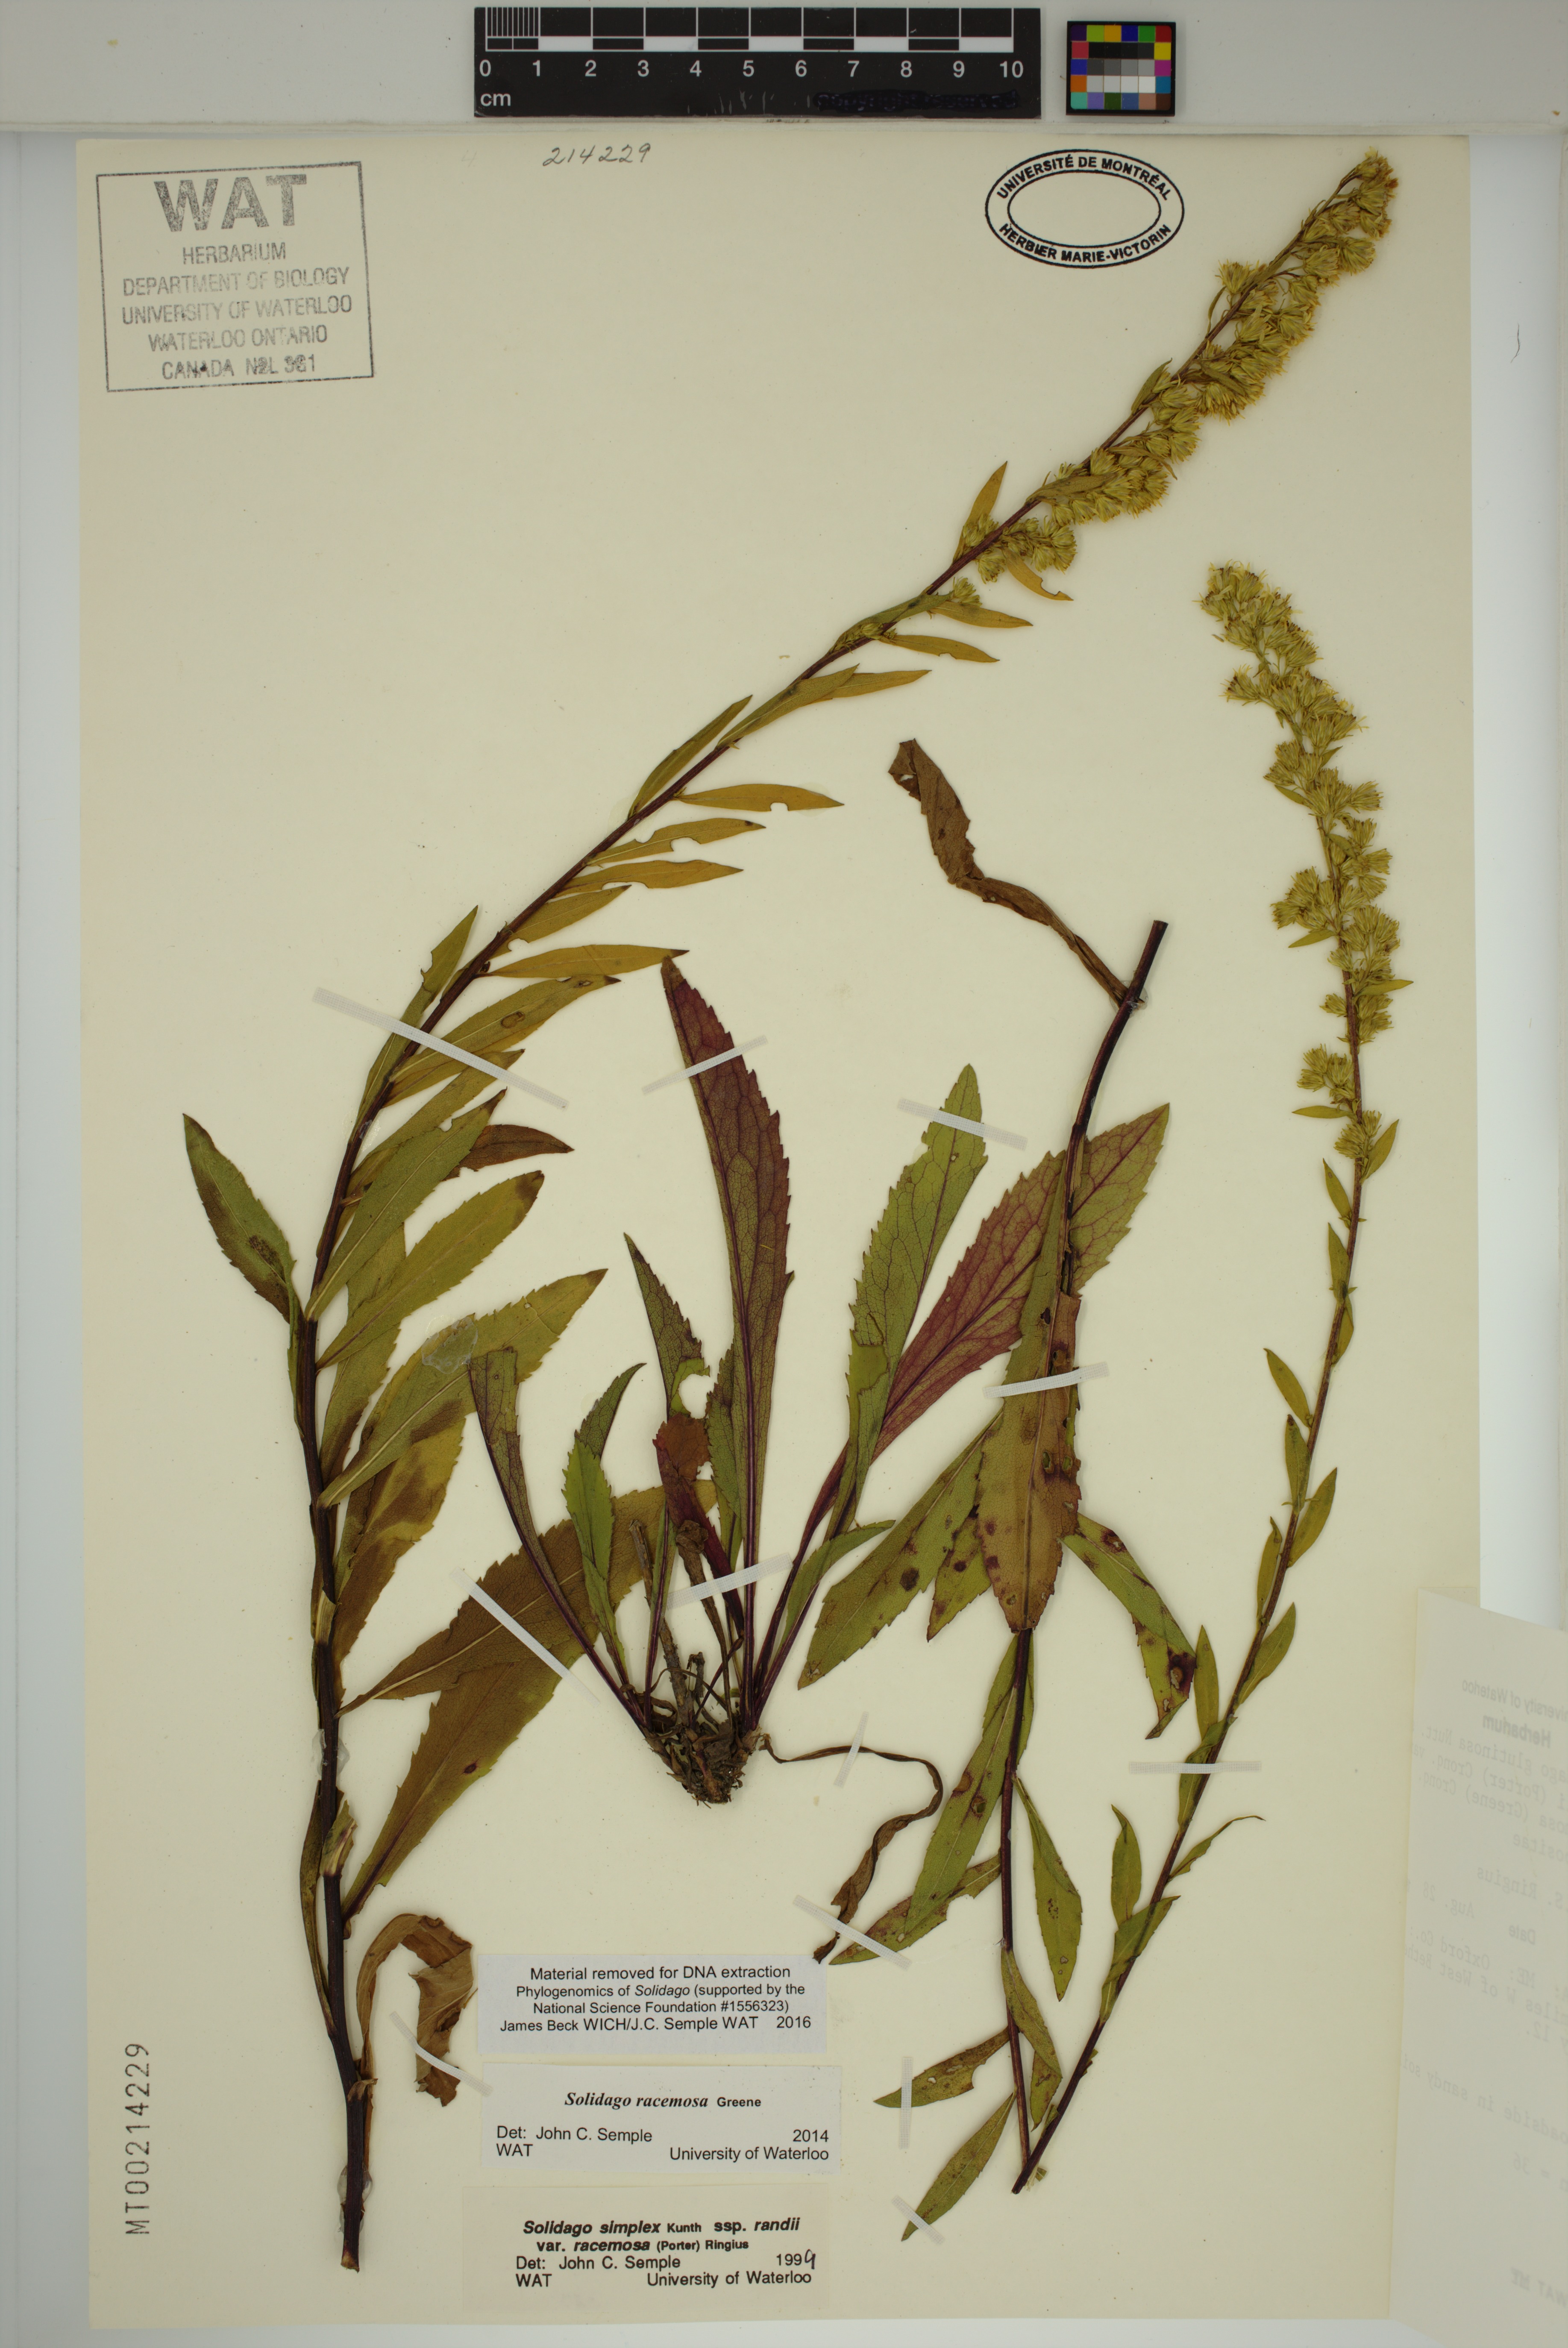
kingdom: Plantae
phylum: Tracheophyta
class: Magnoliopsida
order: Asterales
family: Asteraceae
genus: Solidago
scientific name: Solidago racemosa
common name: Lake ontario goldenrod
